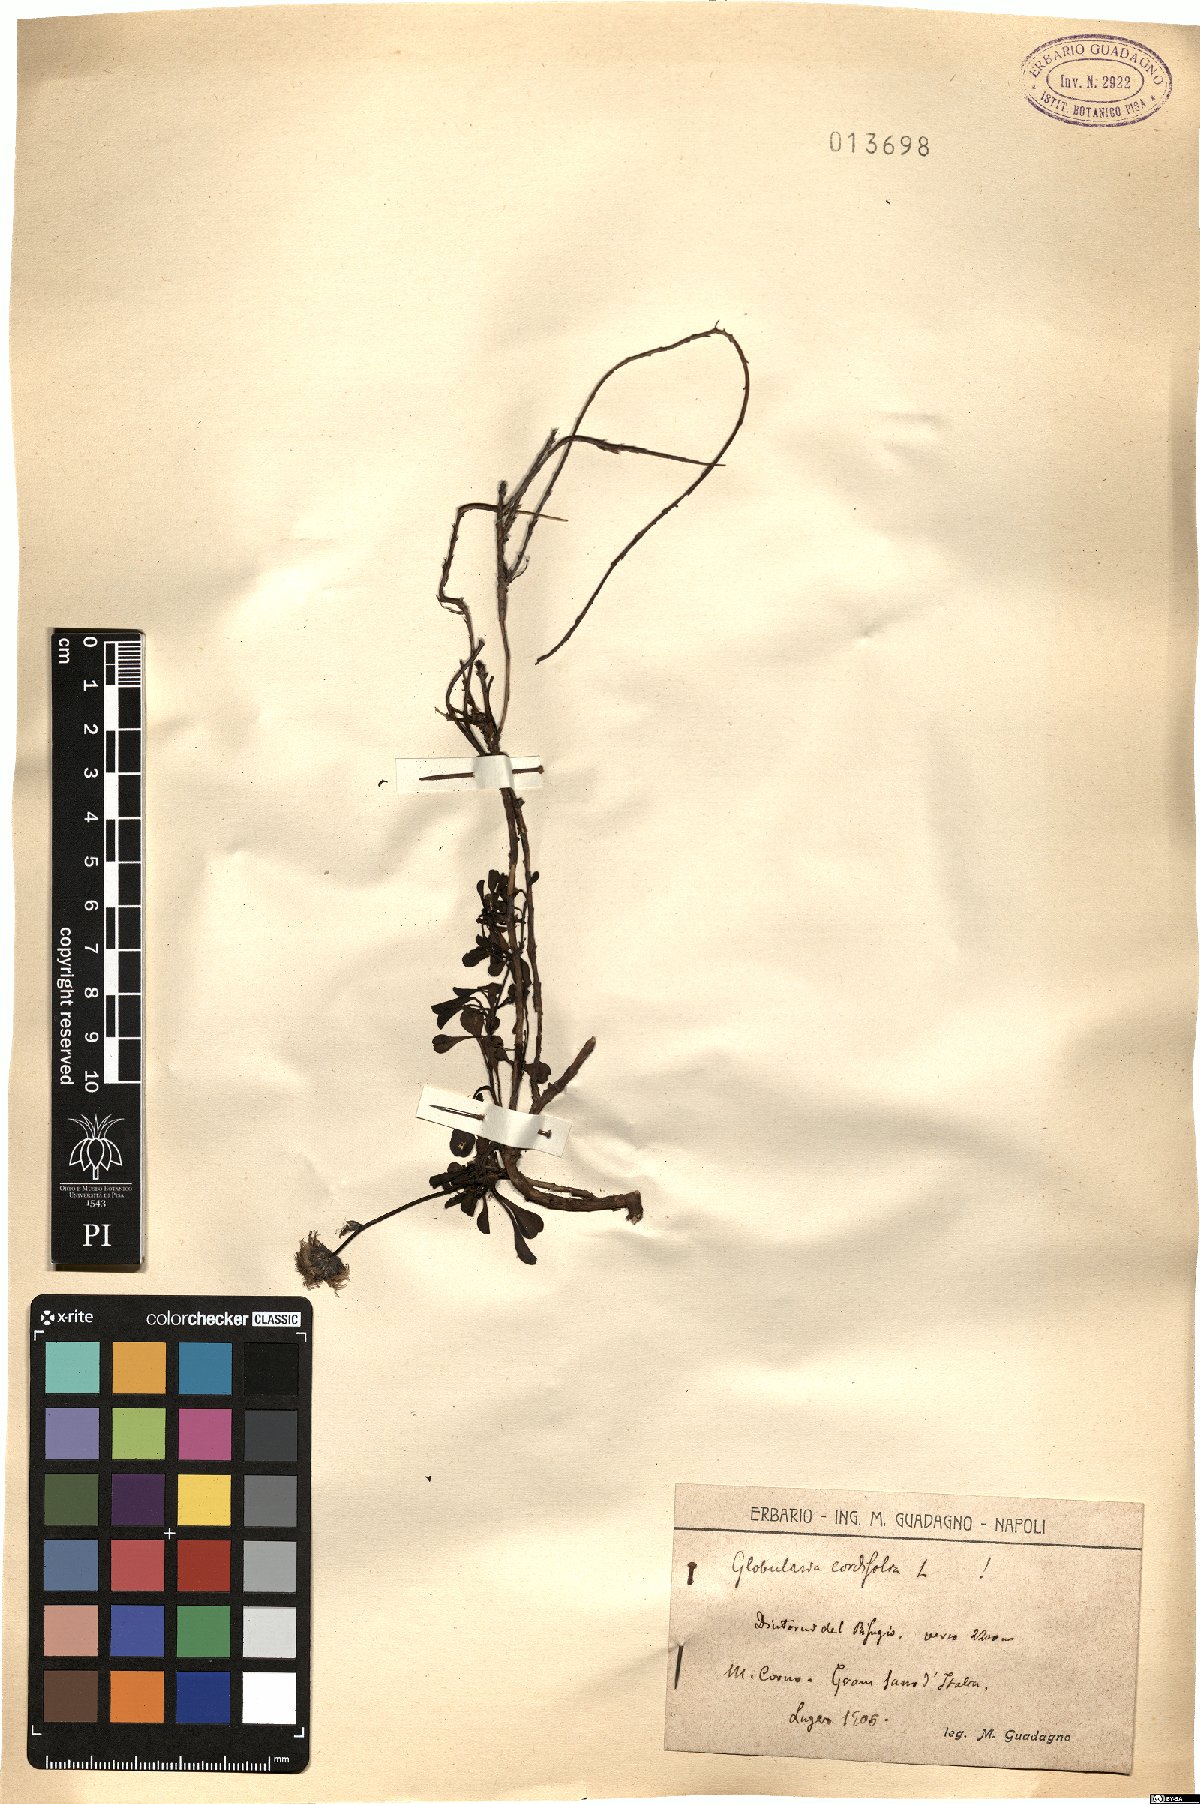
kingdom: Plantae
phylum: Tracheophyta
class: Magnoliopsida
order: Lamiales
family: Plantaginaceae
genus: Globularia
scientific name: Globularia cordifolia
